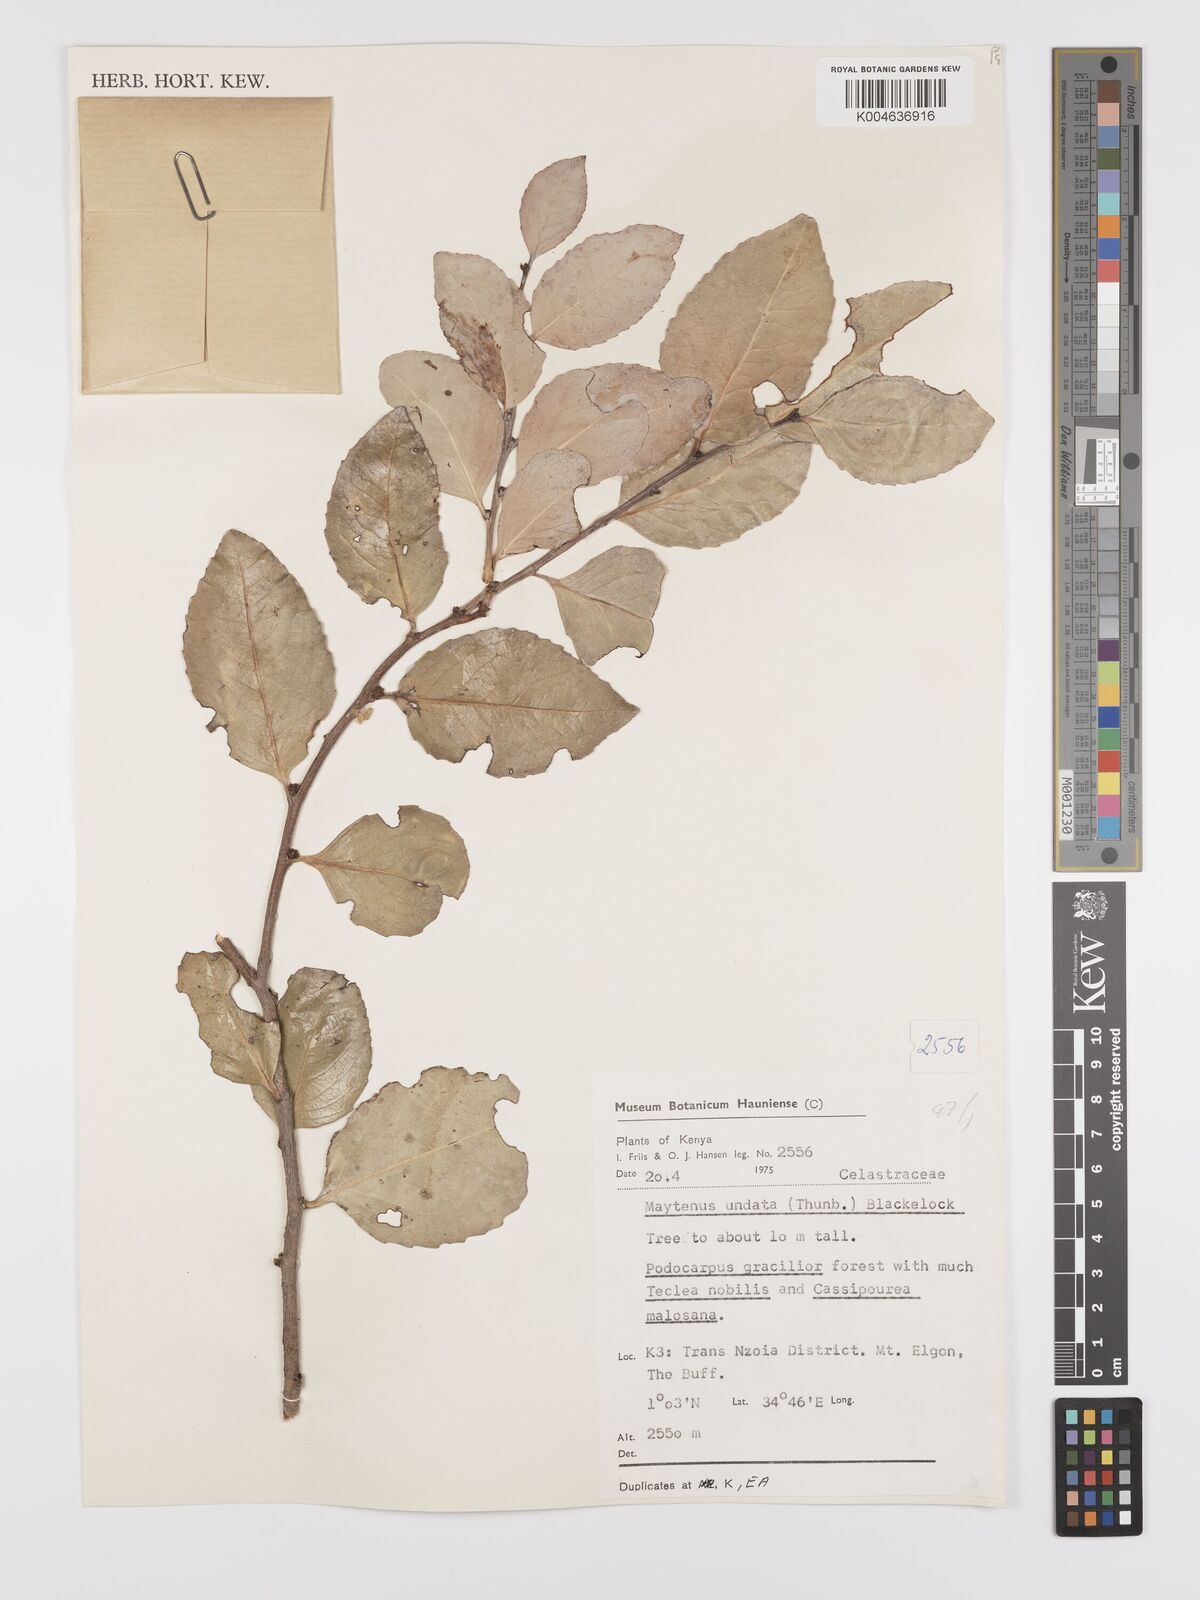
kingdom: Plantae
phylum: Tracheophyta
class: Magnoliopsida
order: Celastrales
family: Celastraceae
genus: Gymnosporia
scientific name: Gymnosporia undata
